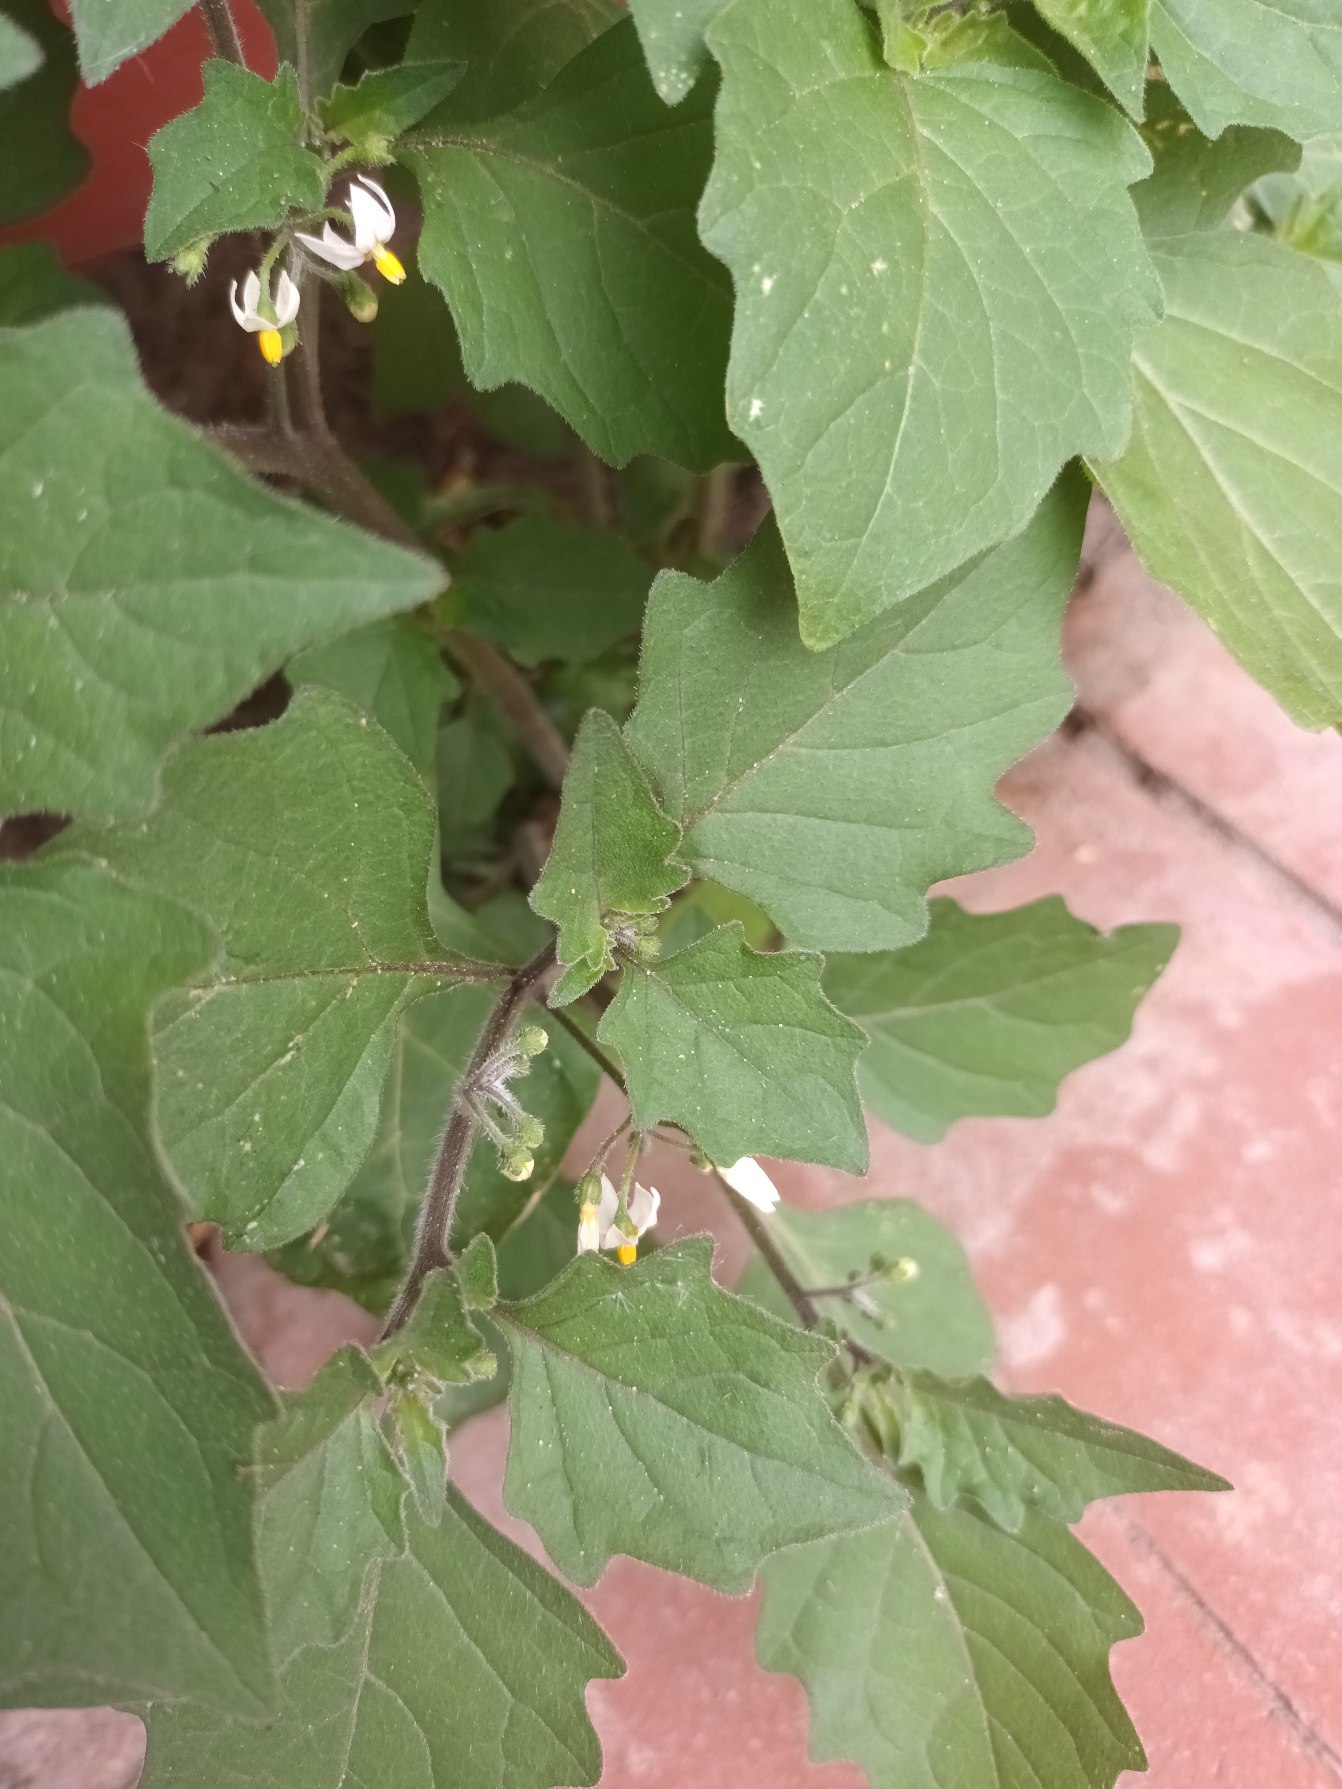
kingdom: Plantae
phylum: Tracheophyta
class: Magnoliopsida
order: Solanales
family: Solanaceae
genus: Solanum
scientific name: Solanum decipiens
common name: Kirtel-natskygge
